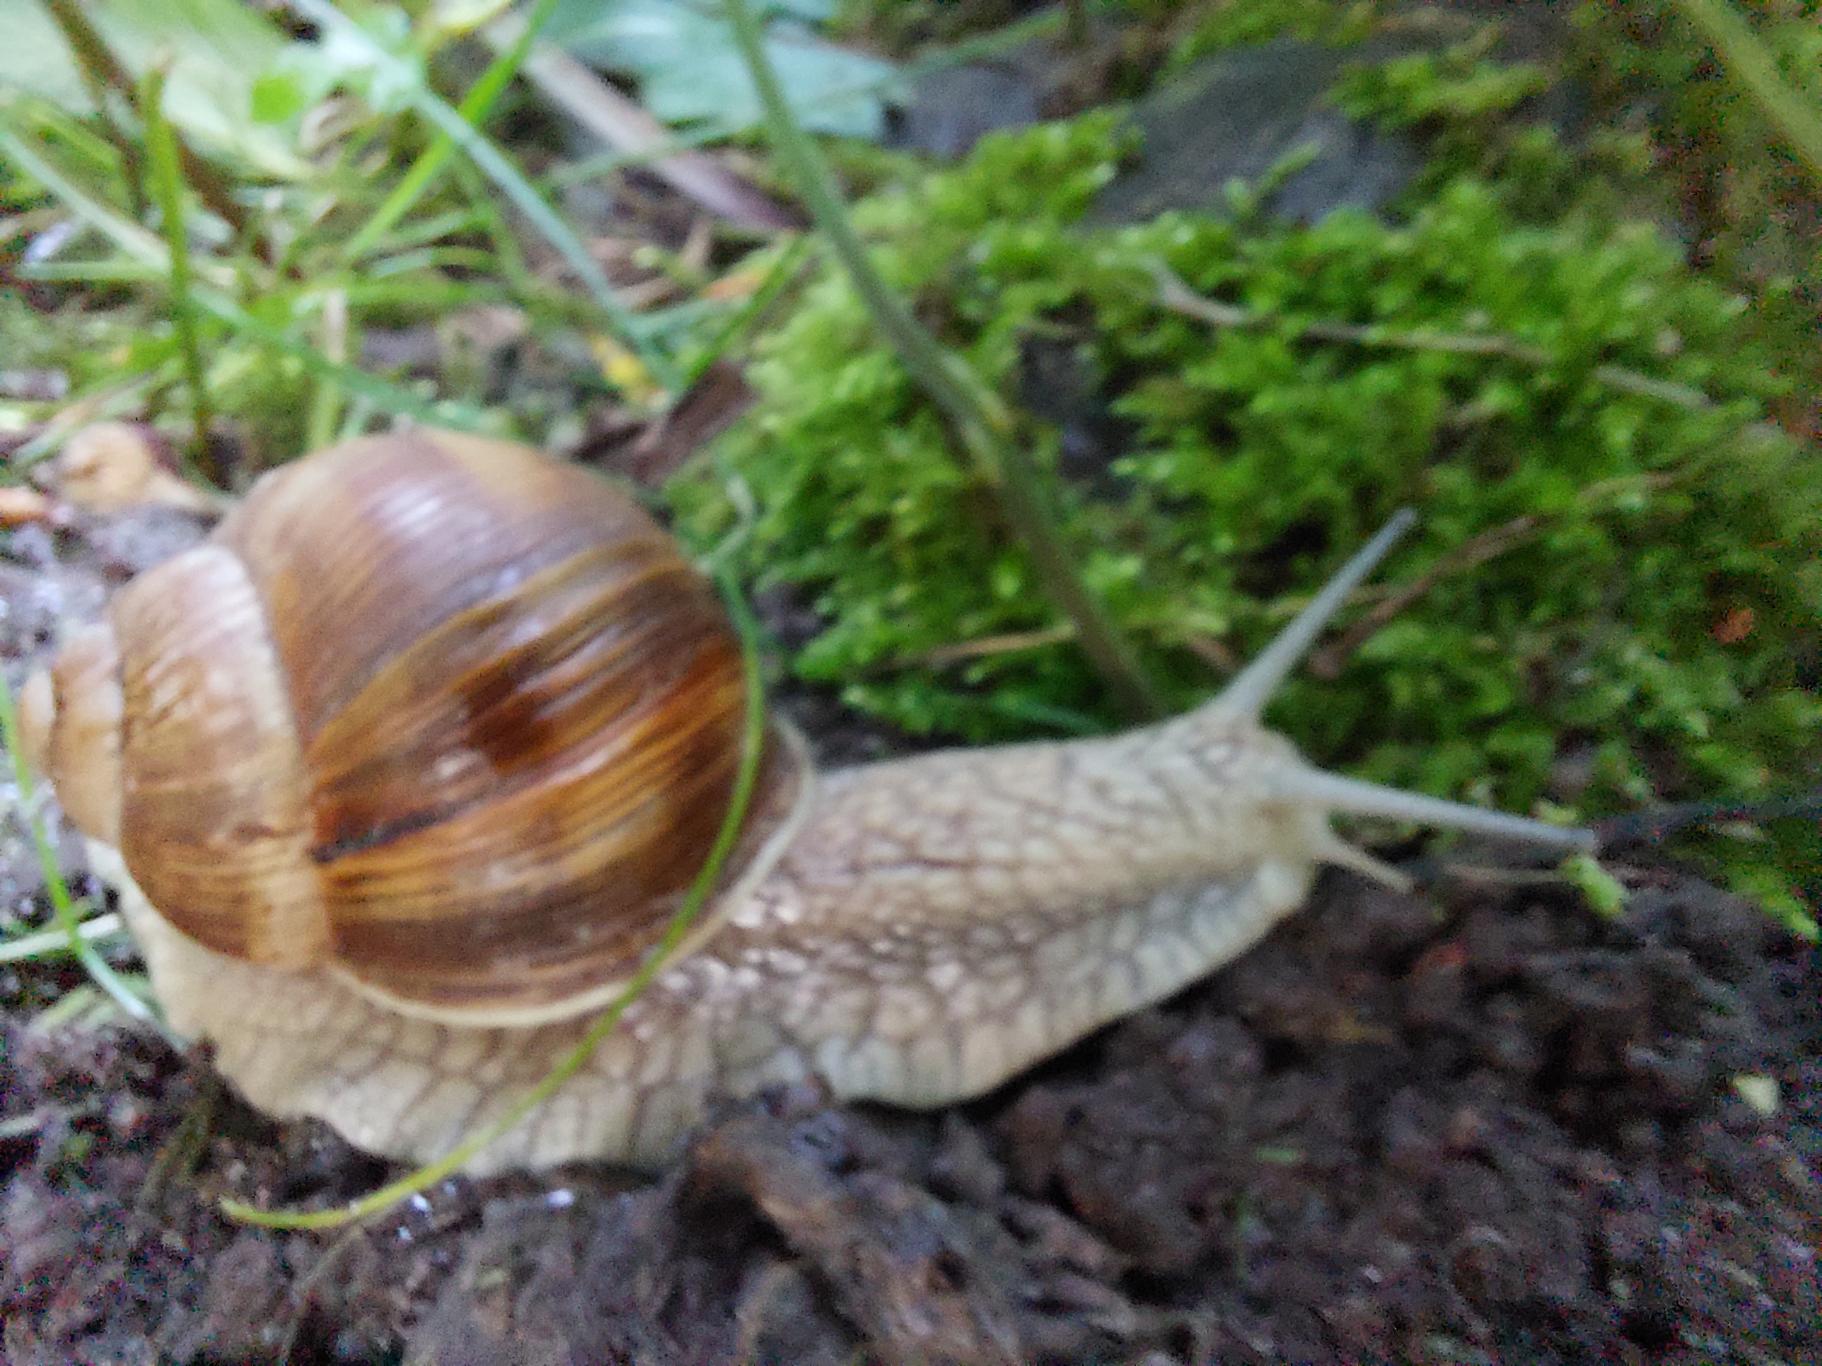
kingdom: Animalia
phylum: Mollusca
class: Gastropoda
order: Stylommatophora
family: Helicidae
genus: Helix
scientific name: Helix pomatia
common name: Vinbjergsnegl
